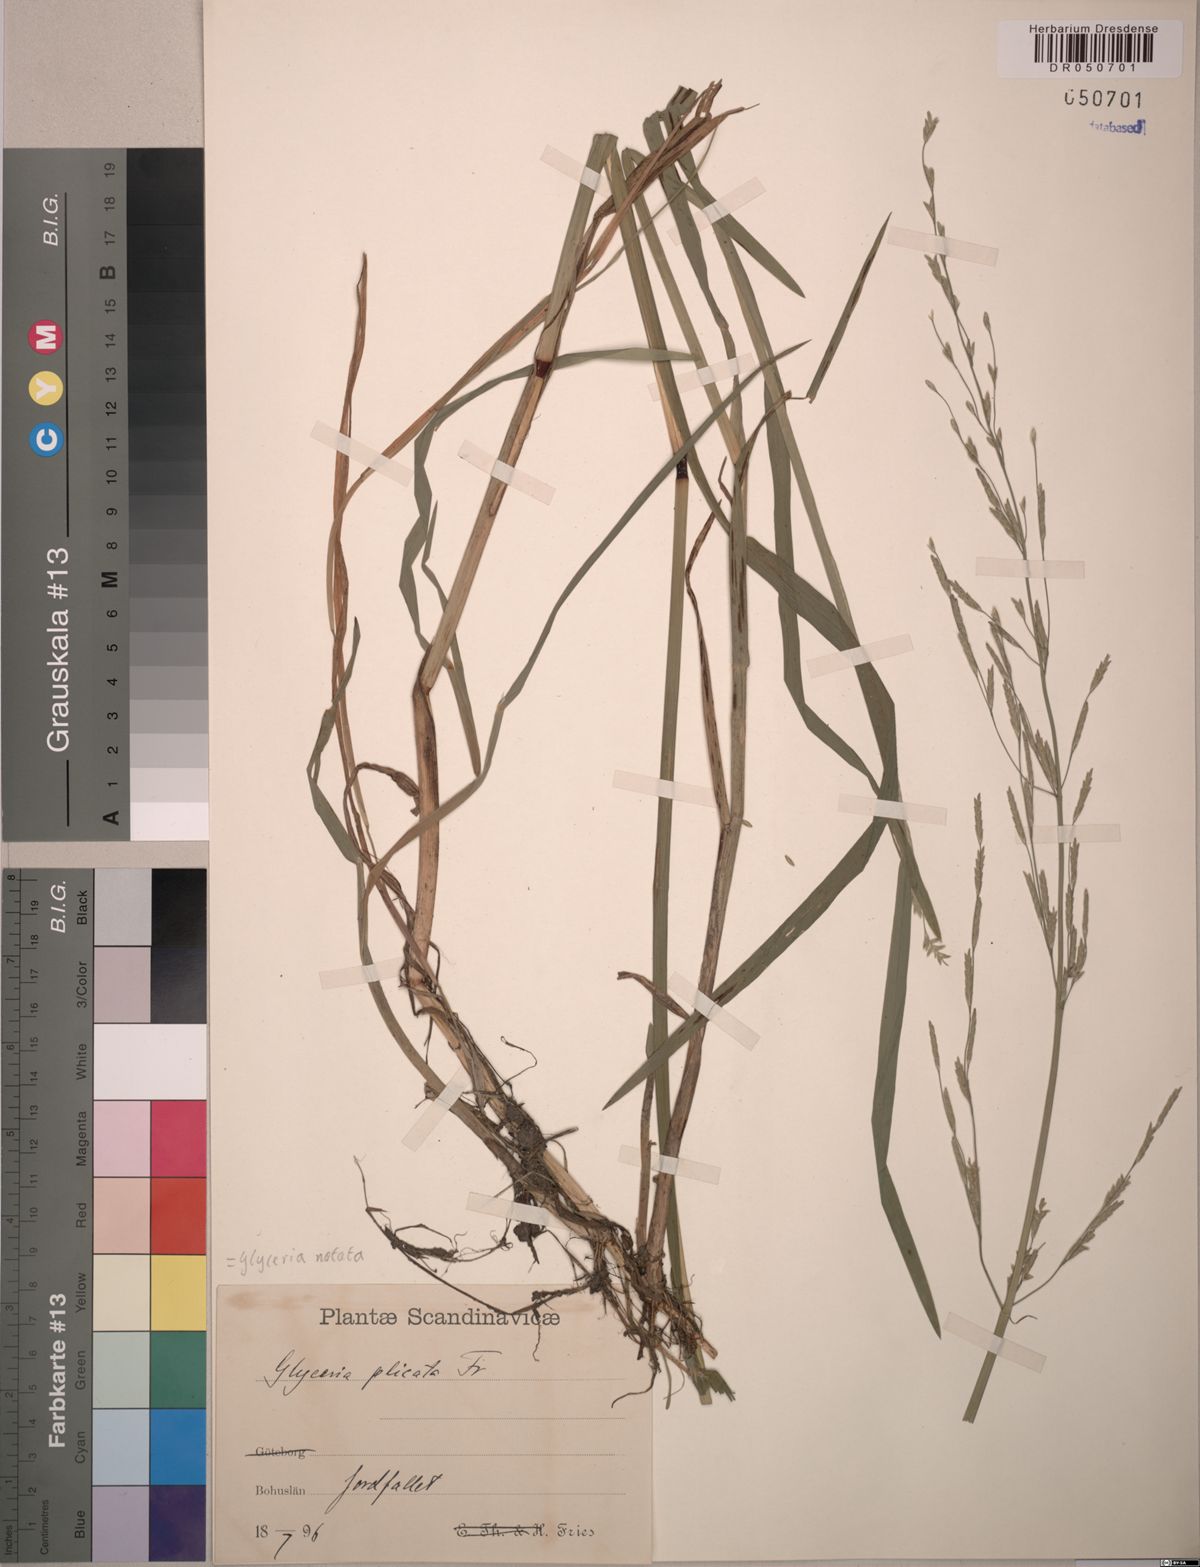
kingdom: Plantae
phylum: Tracheophyta
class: Liliopsida
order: Poales
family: Poaceae
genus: Glyceria
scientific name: Glyceria notata
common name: Plicate sweet-grass
